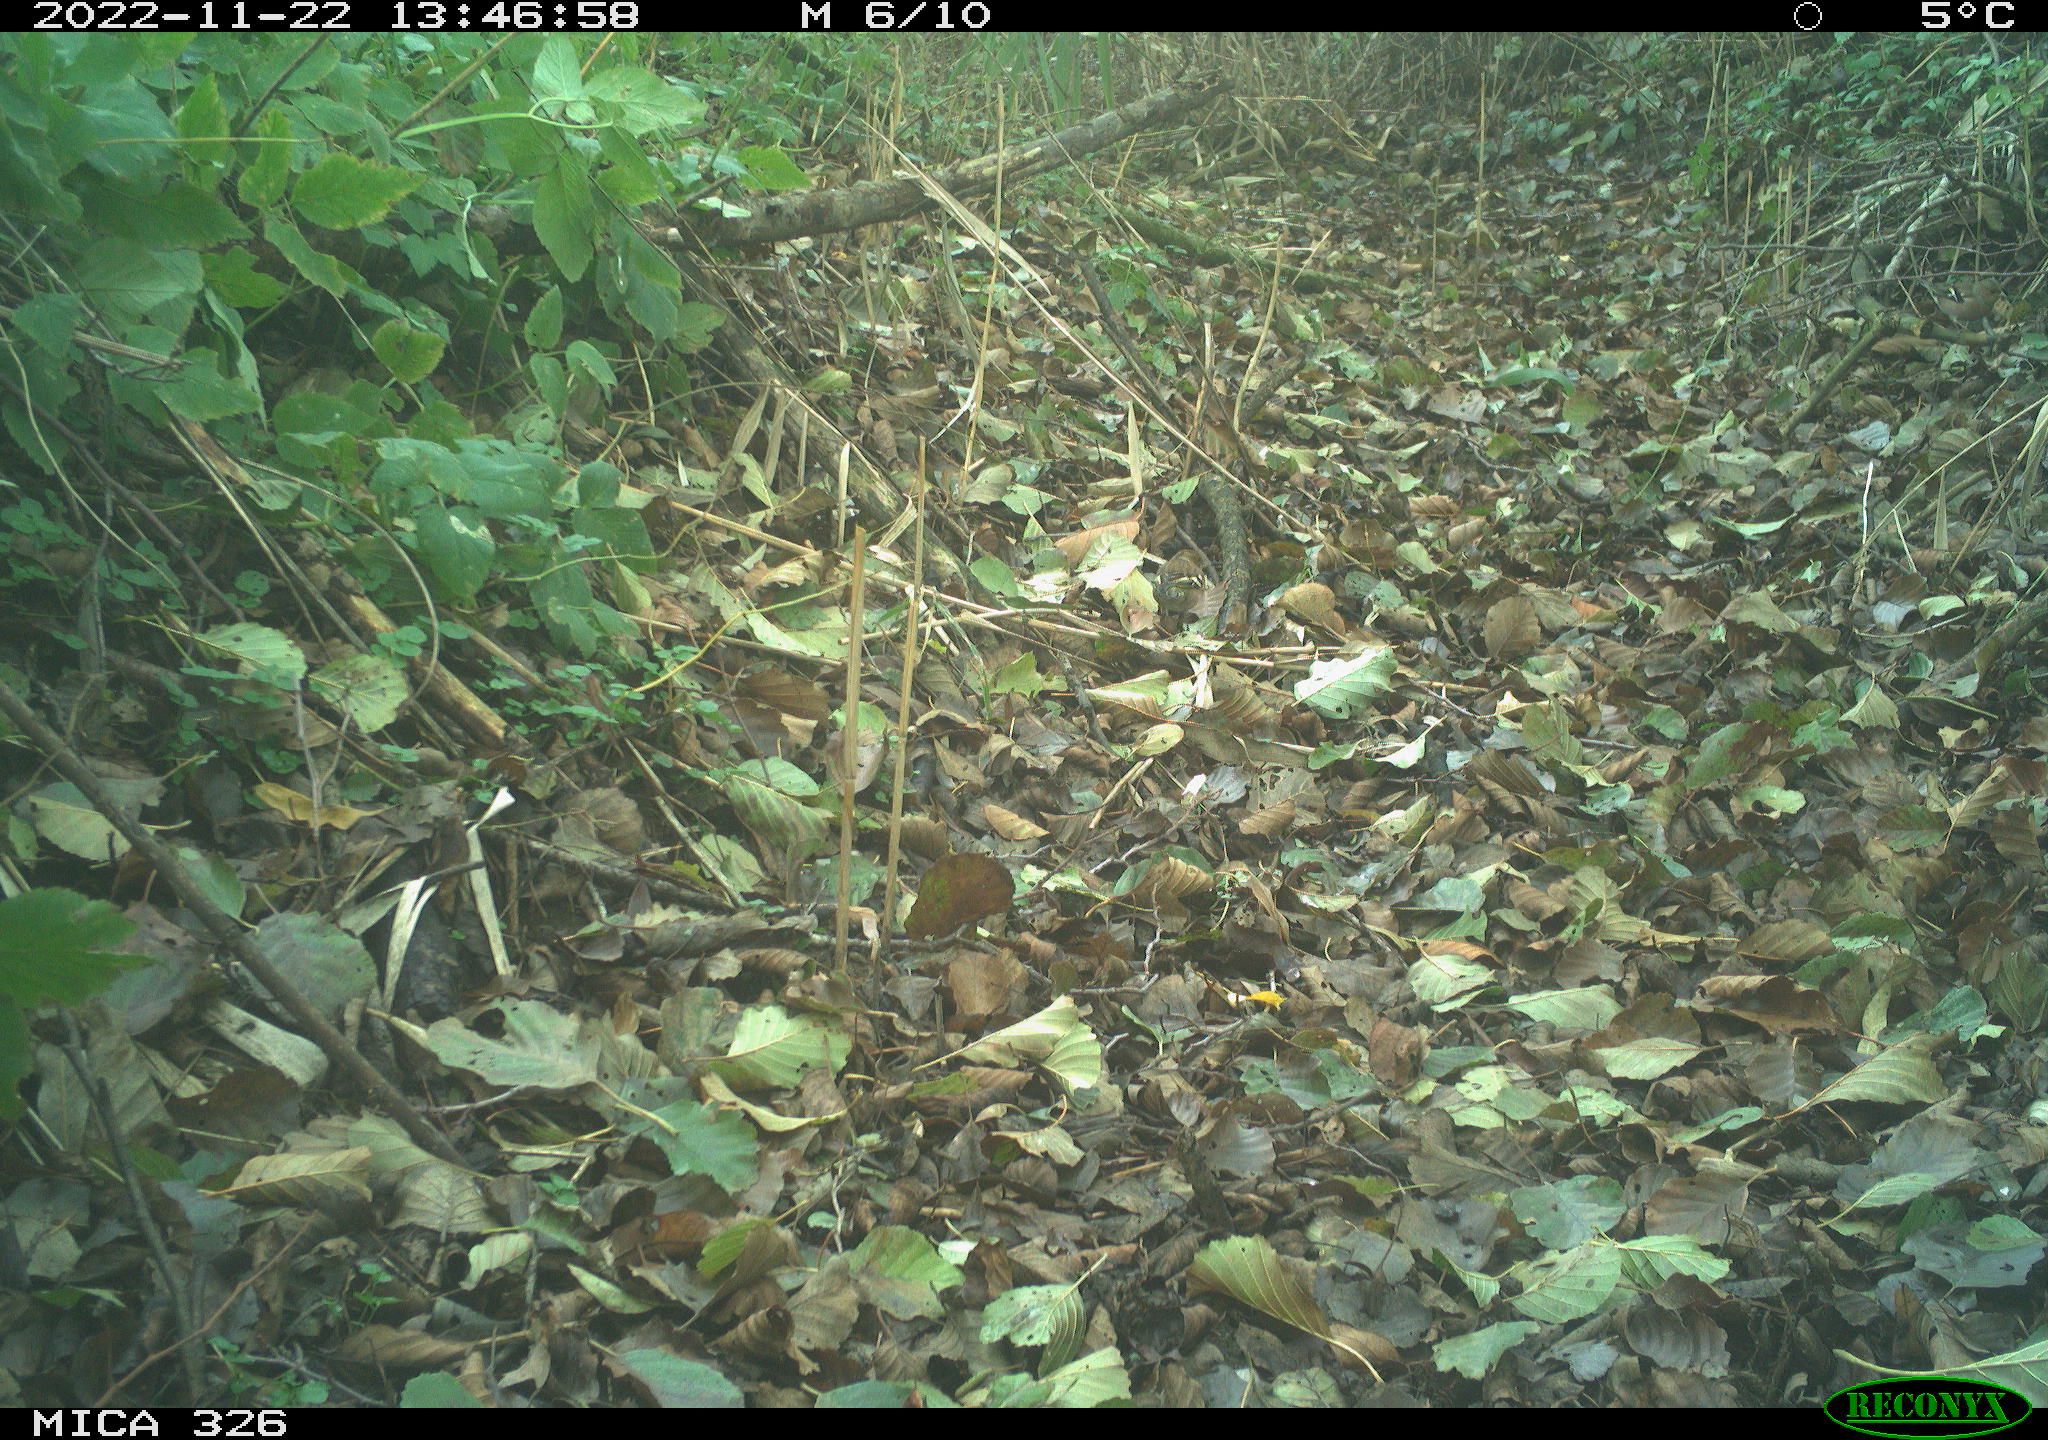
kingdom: Animalia
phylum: Chordata
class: Aves
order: Passeriformes
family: Fringillidae
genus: Fringilla
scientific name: Fringilla coelebs
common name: Common chaffinch
